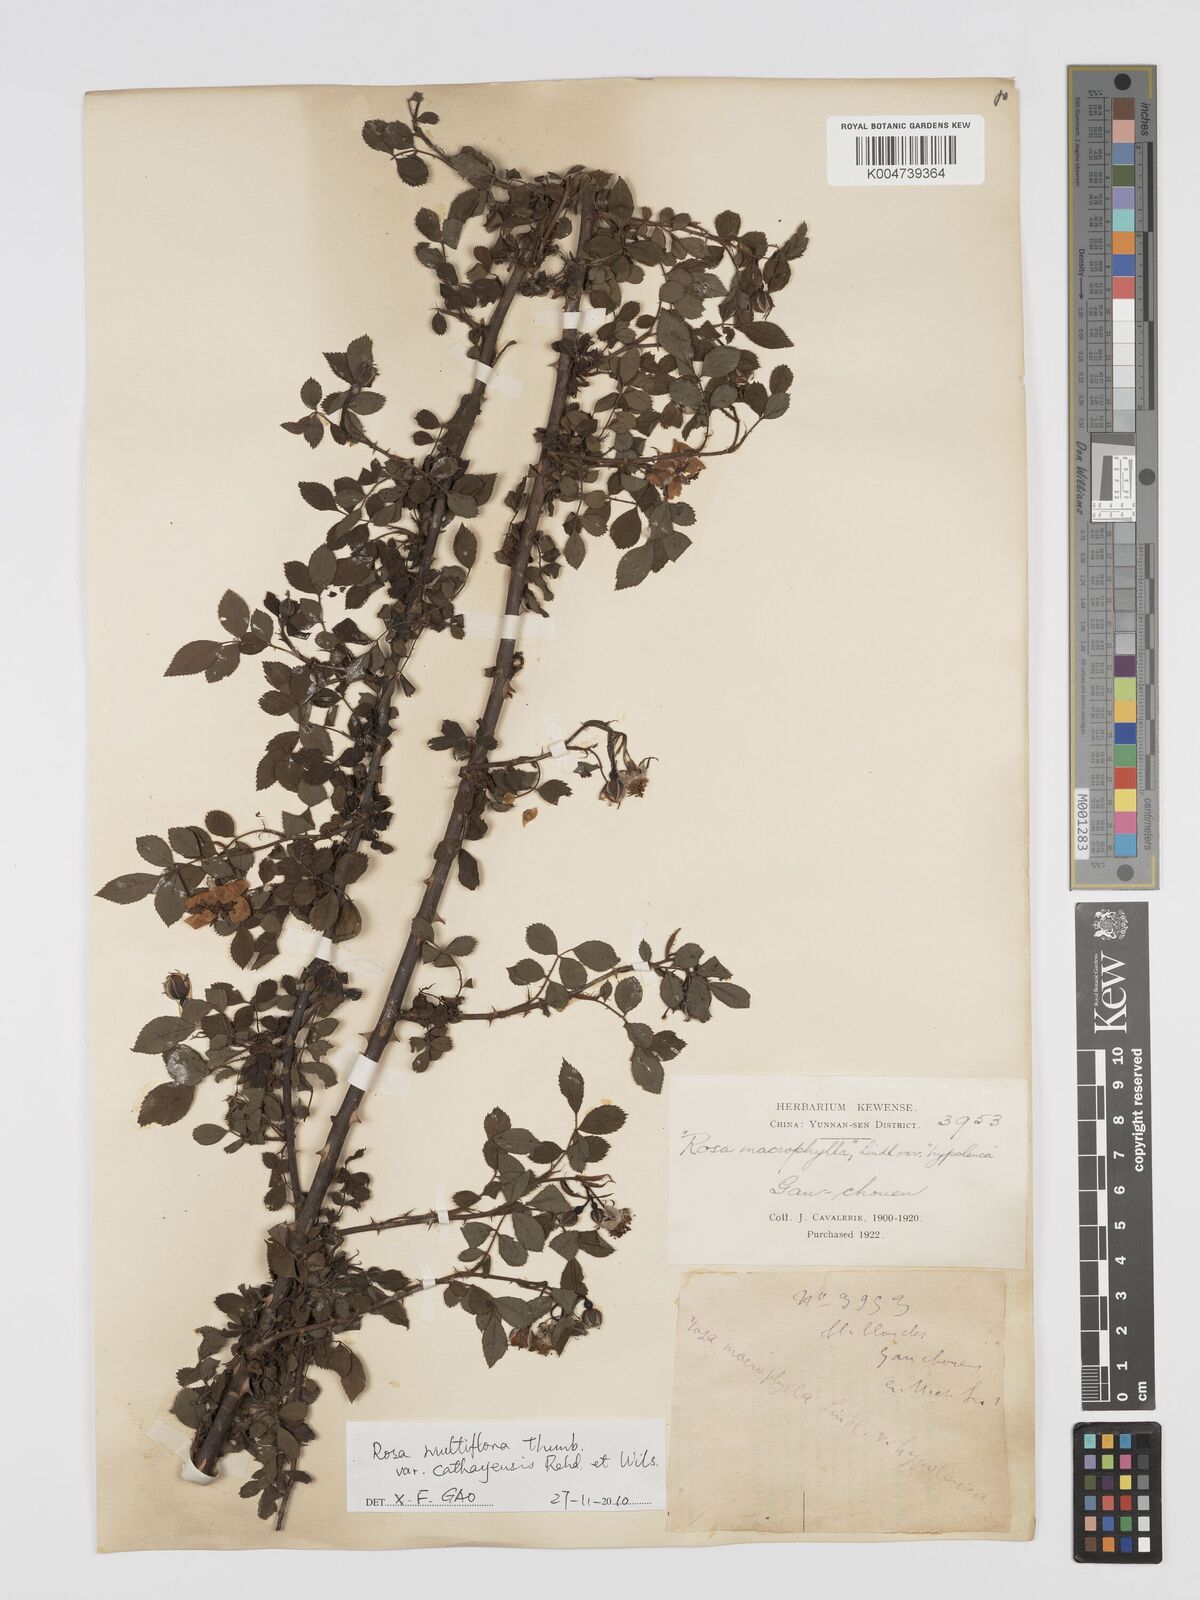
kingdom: Plantae
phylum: Tracheophyta
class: Magnoliopsida
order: Rosales
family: Rosaceae
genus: Rosa
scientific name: Rosa
